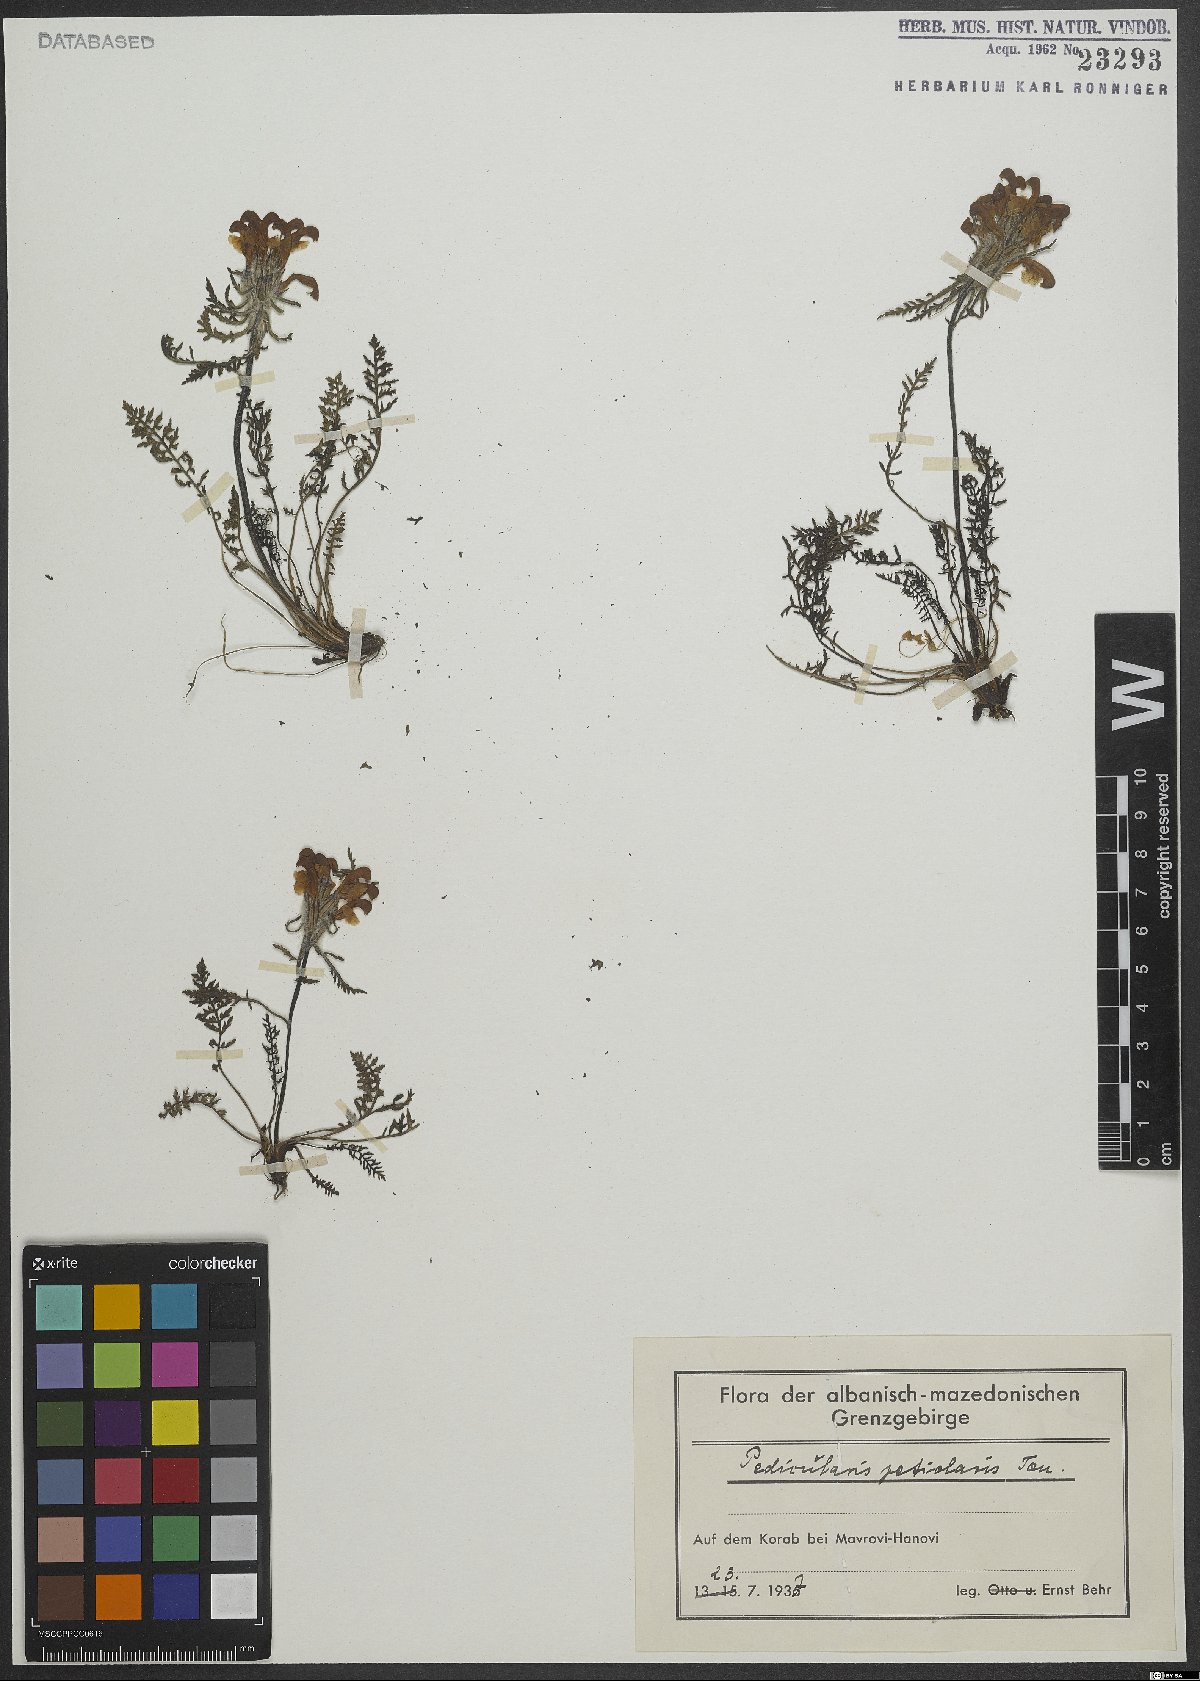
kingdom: Plantae
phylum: Tracheophyta
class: Magnoliopsida
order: Lamiales
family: Orobanchaceae
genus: Pedicularis
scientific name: Pedicularis petiolaris
